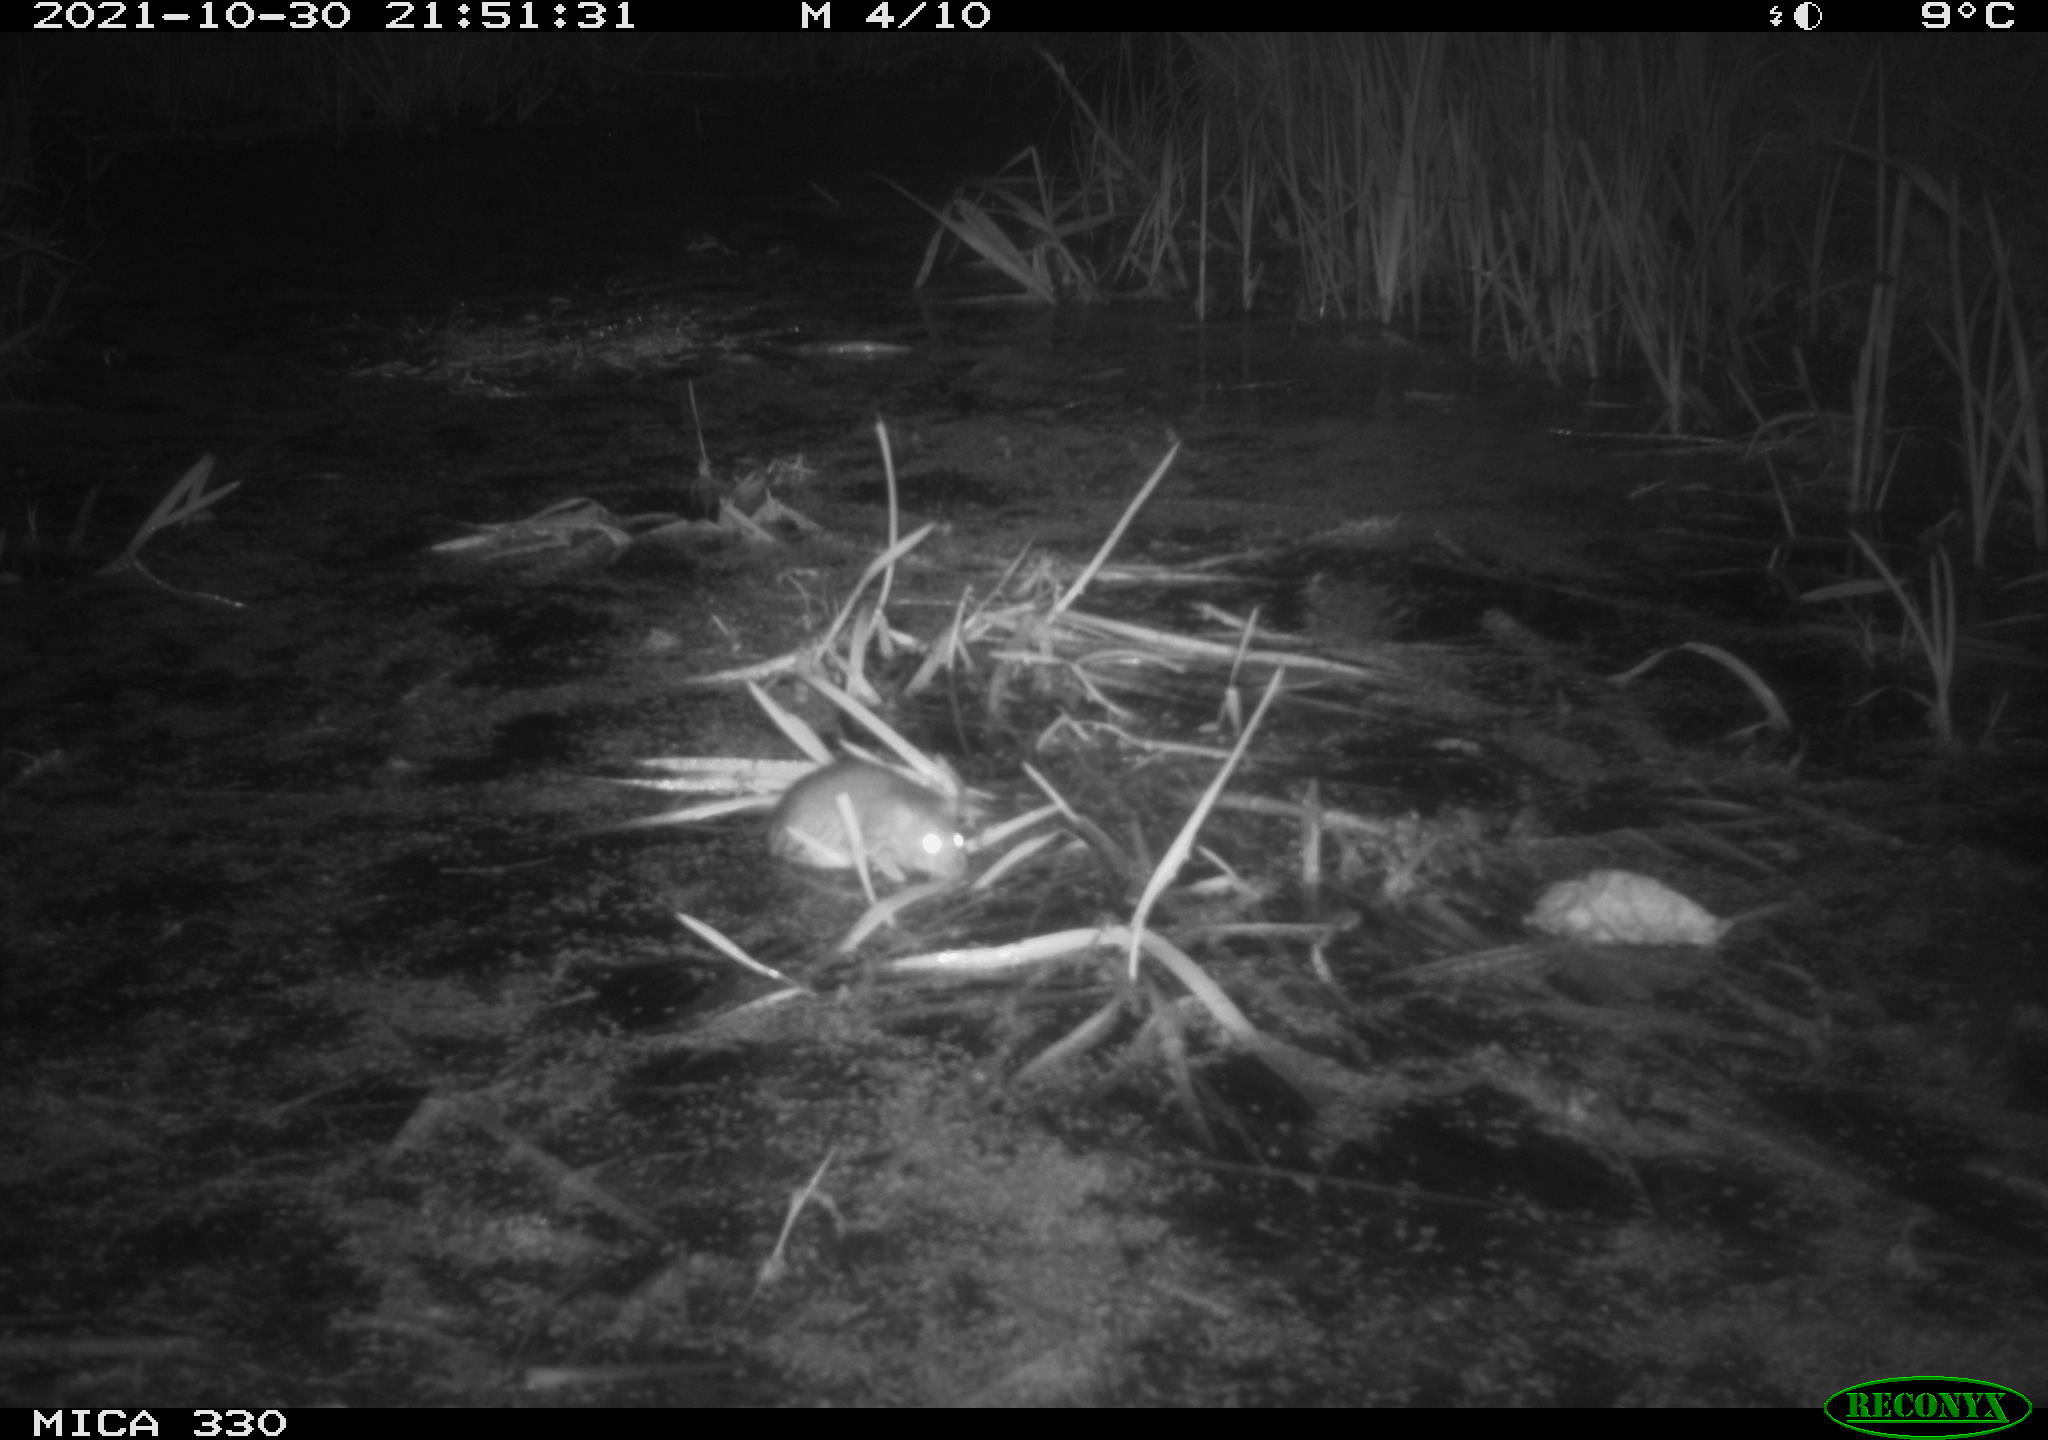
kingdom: Animalia
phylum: Chordata
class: Mammalia
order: Rodentia
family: Muridae
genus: Rattus
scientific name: Rattus norvegicus
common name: Brown rat
